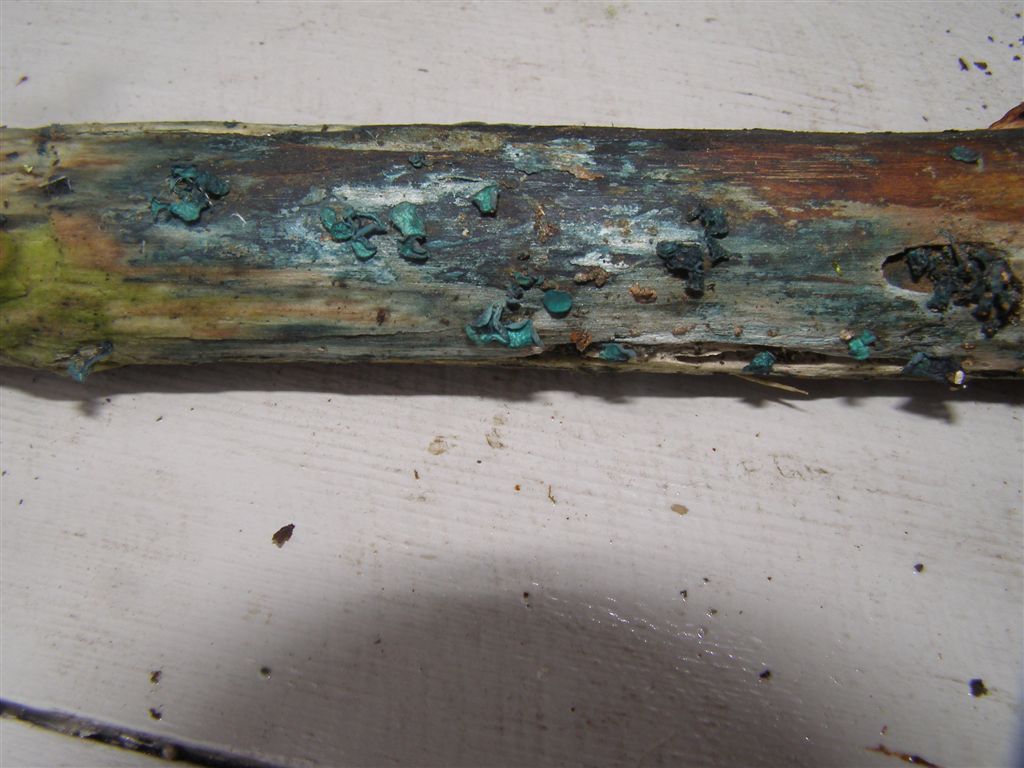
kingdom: Fungi
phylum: Ascomycota
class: Leotiomycetes
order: Helotiales
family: Chlorociboriaceae
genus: Chlorociboria
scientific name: Chlorociboria aeruginascens
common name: almindelig grønskive
